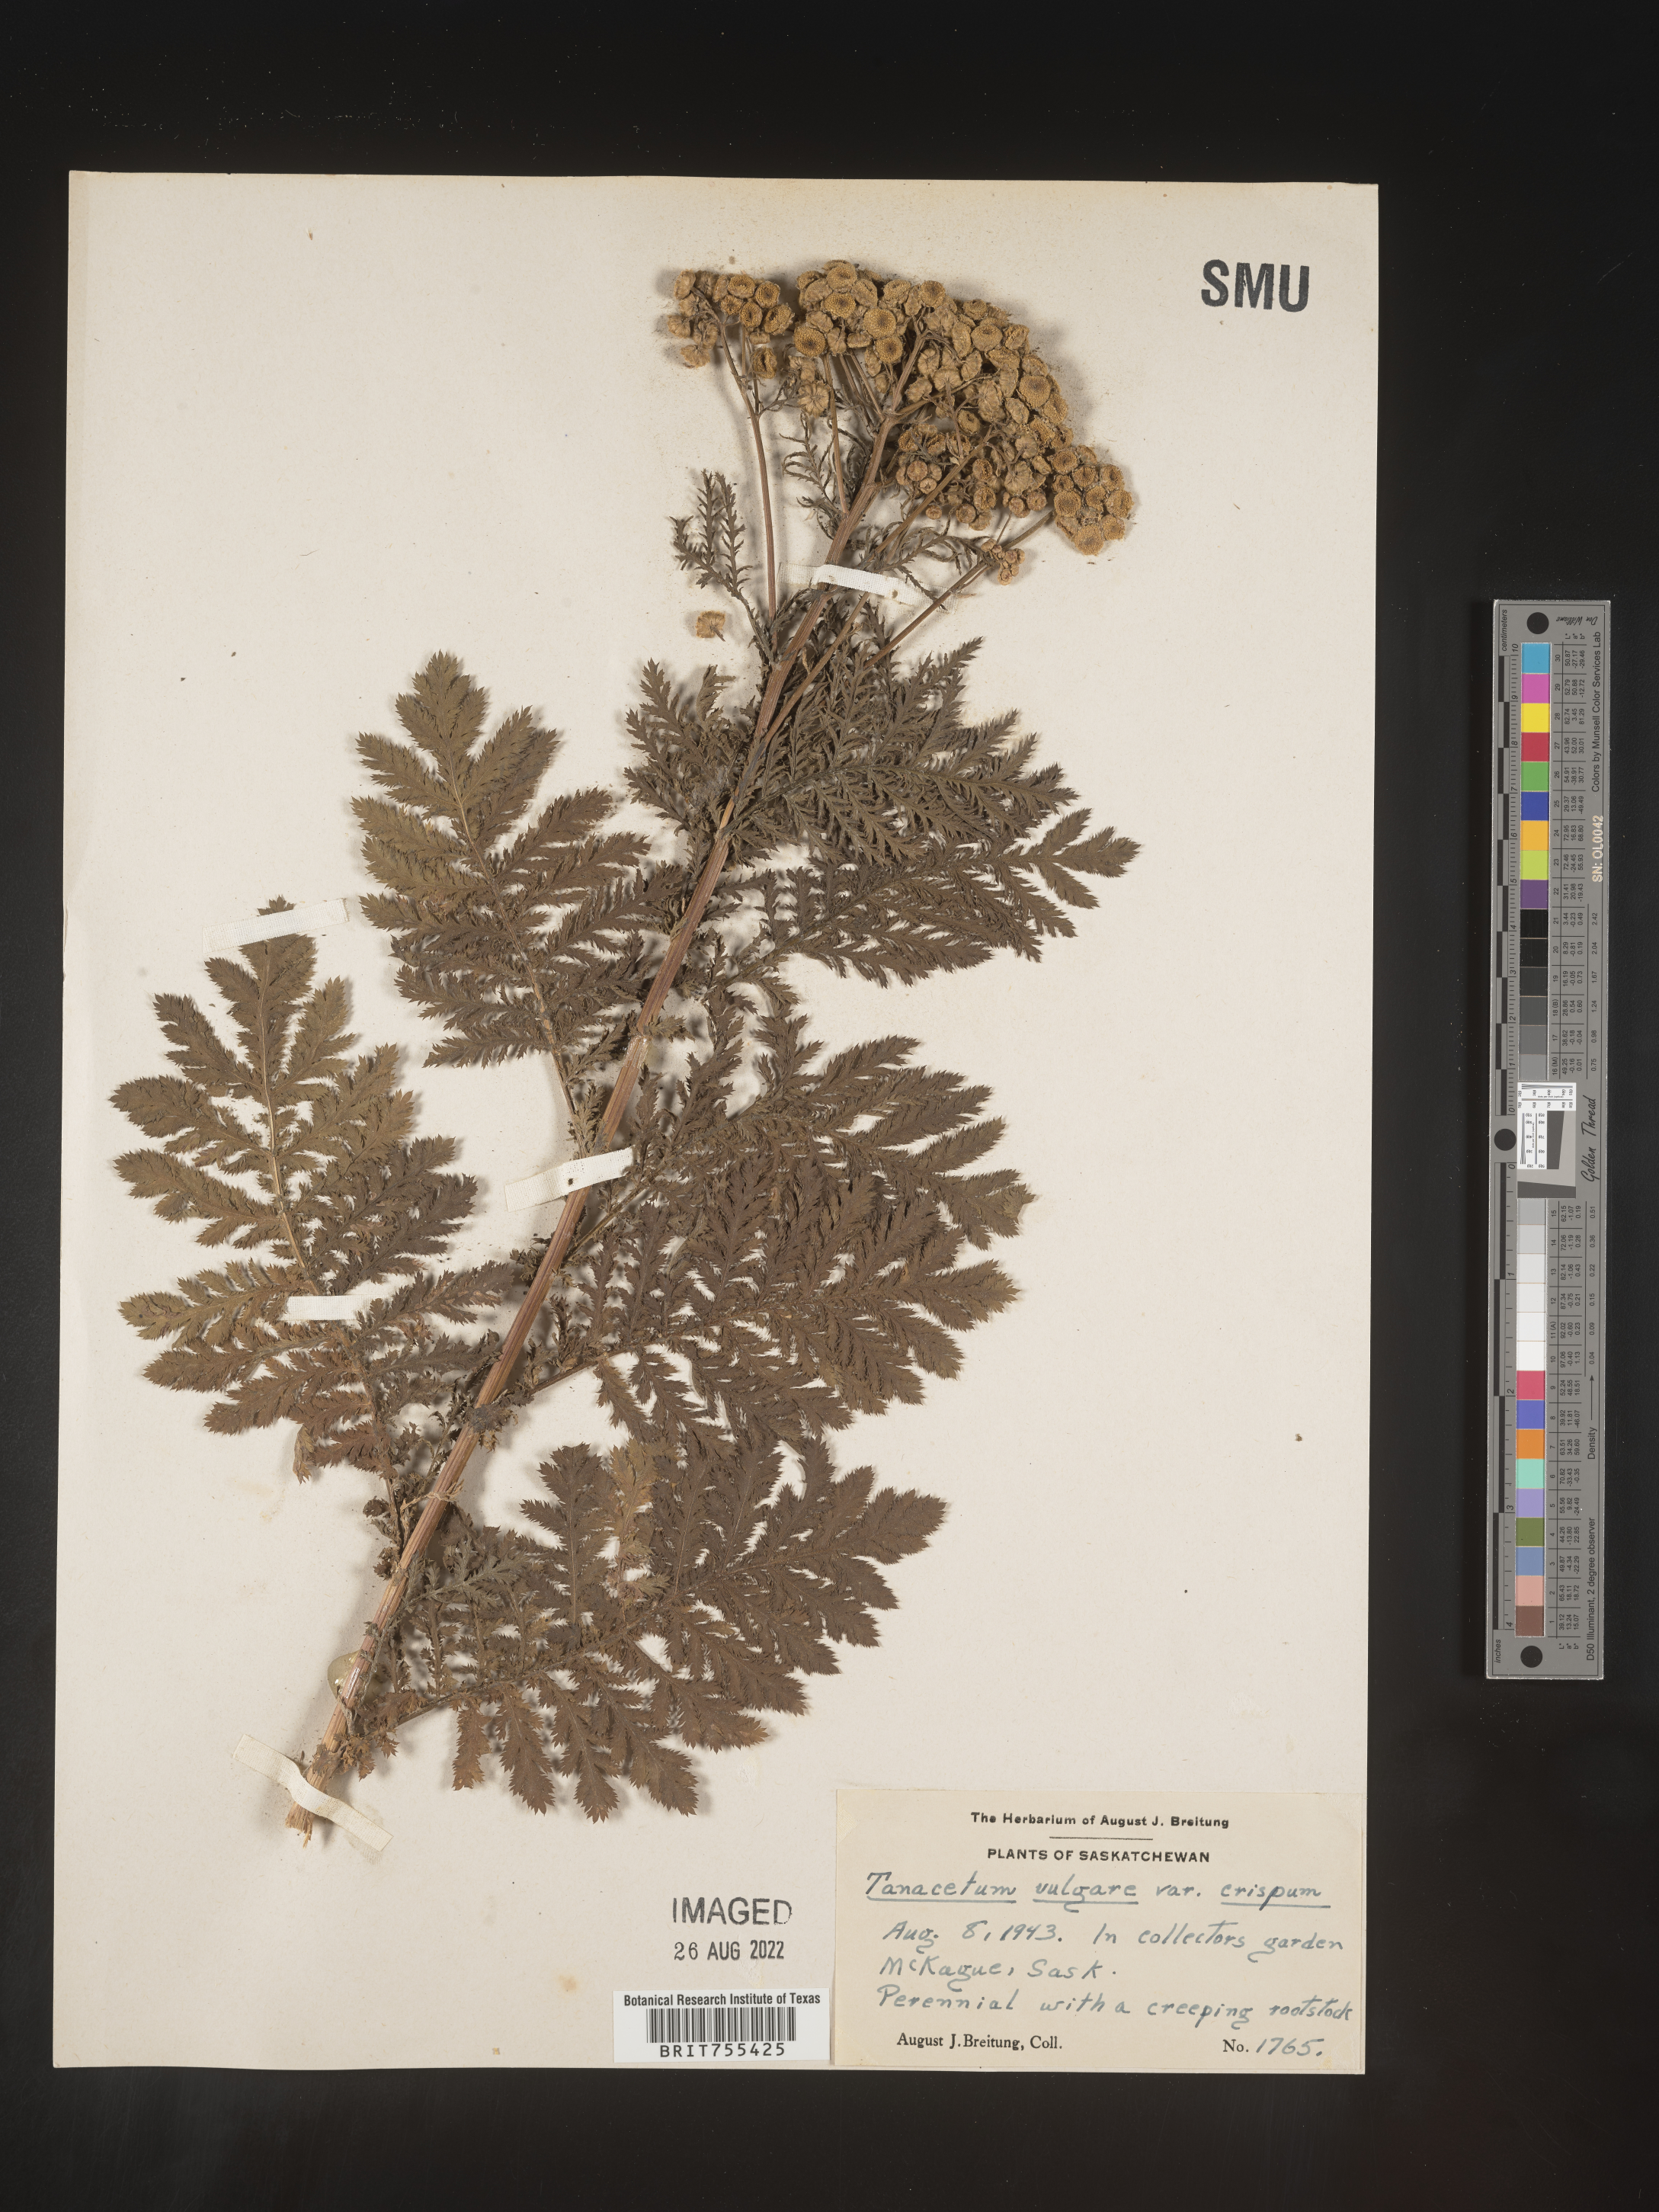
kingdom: Plantae
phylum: Tracheophyta
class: Magnoliopsida
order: Asterales
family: Asteraceae
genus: Tanacetum
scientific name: Tanacetum
